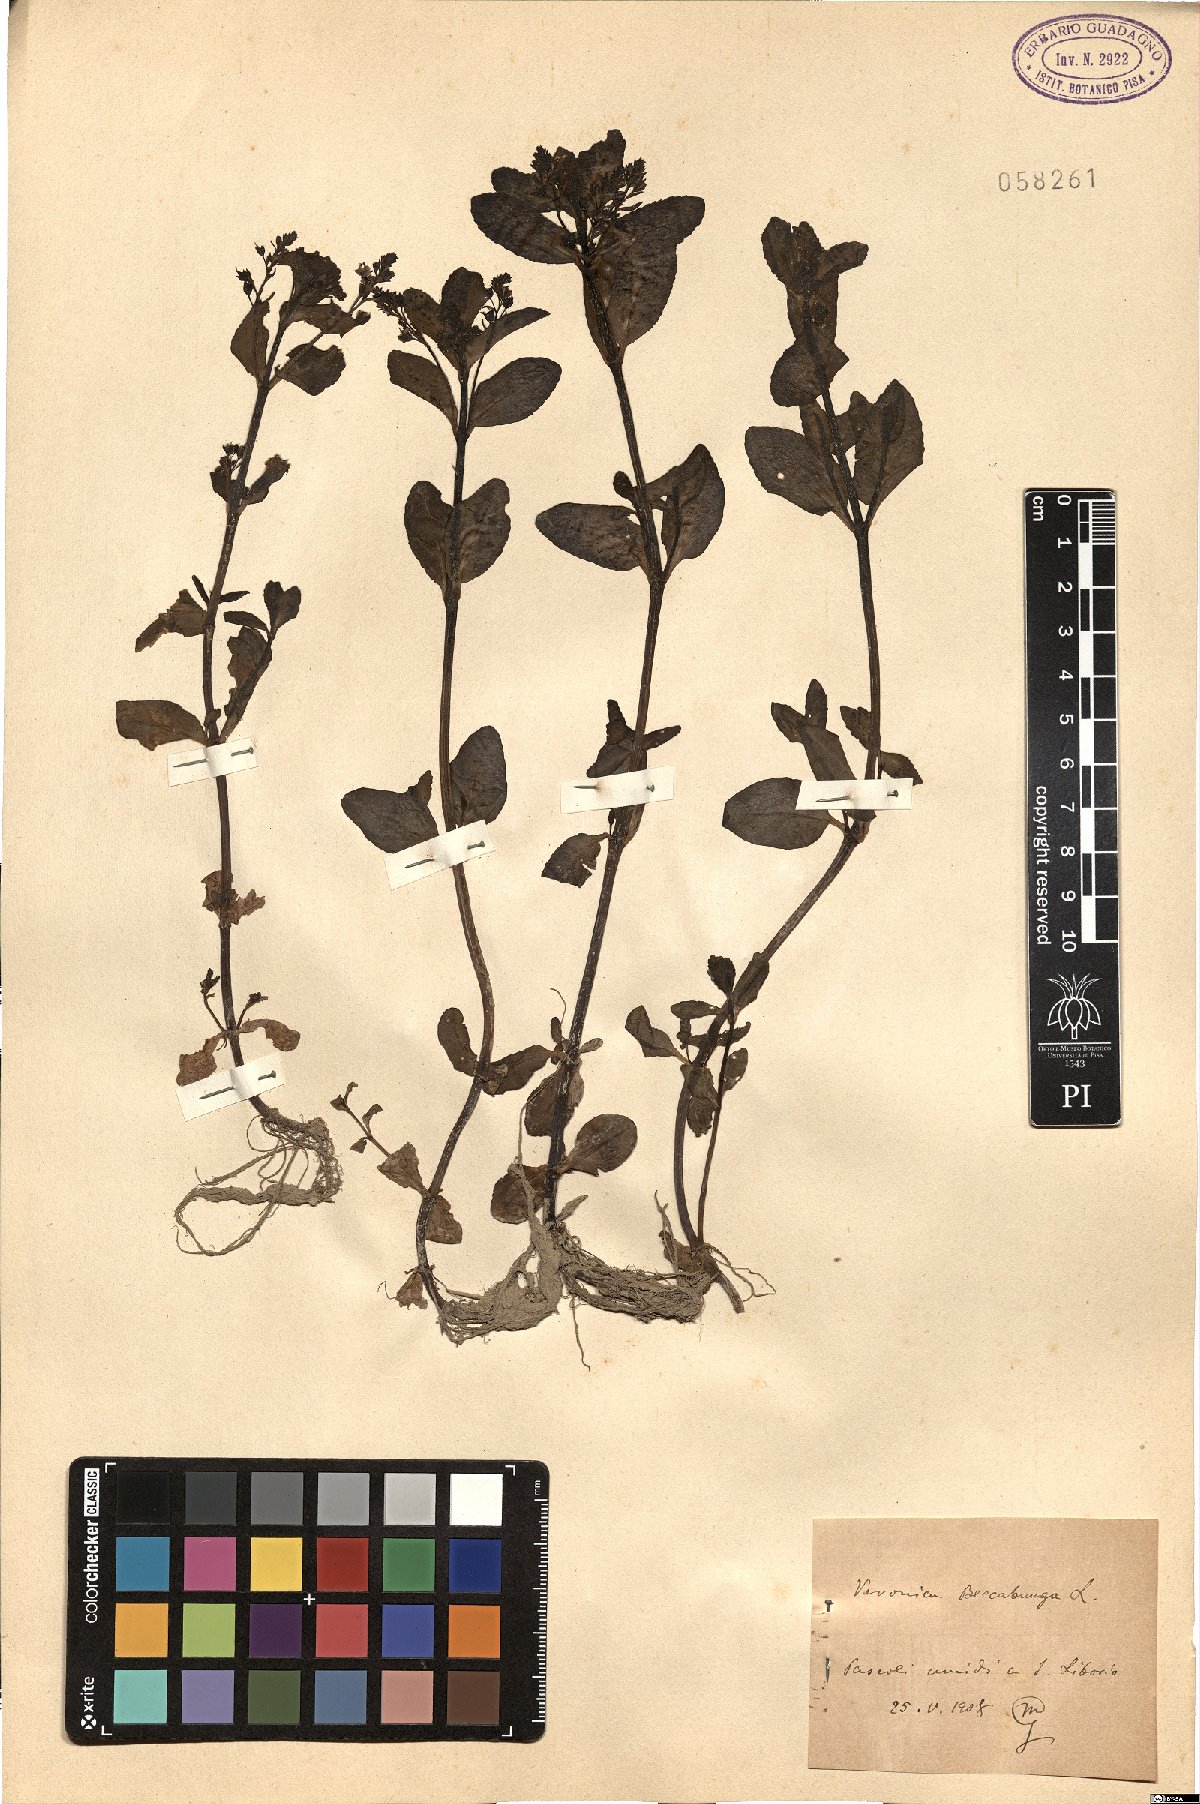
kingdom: Plantae
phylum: Tracheophyta
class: Magnoliopsida
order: Lamiales
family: Plantaginaceae
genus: Veronica
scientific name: Veronica beccabunga
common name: Brooklime
